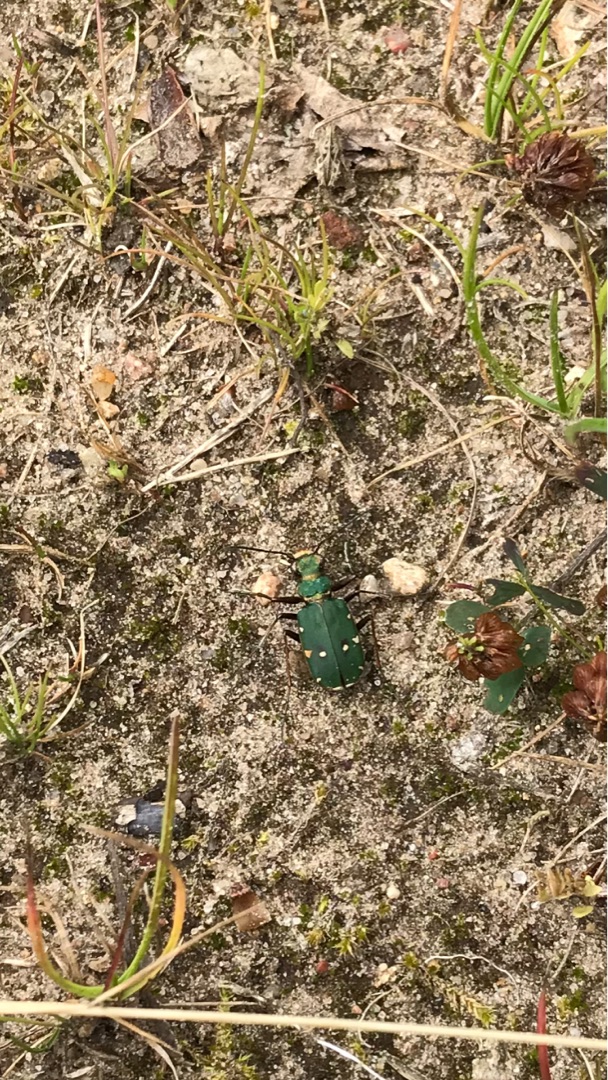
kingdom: Animalia
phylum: Arthropoda
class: Insecta
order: Coleoptera
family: Carabidae
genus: Cicindela
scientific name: Cicindela campestris
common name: Grøn sandspringer
